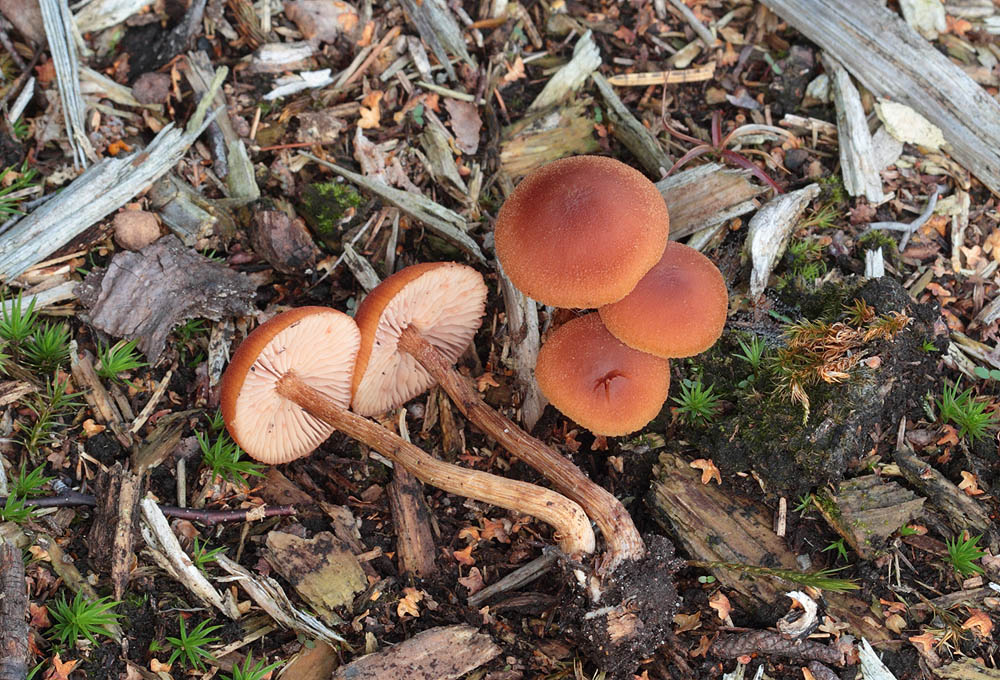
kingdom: Fungi
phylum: Basidiomycota
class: Agaricomycetes
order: Agaricales
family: Hydnangiaceae
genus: Laccaria
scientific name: Laccaria proxima
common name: stor ametysthat
